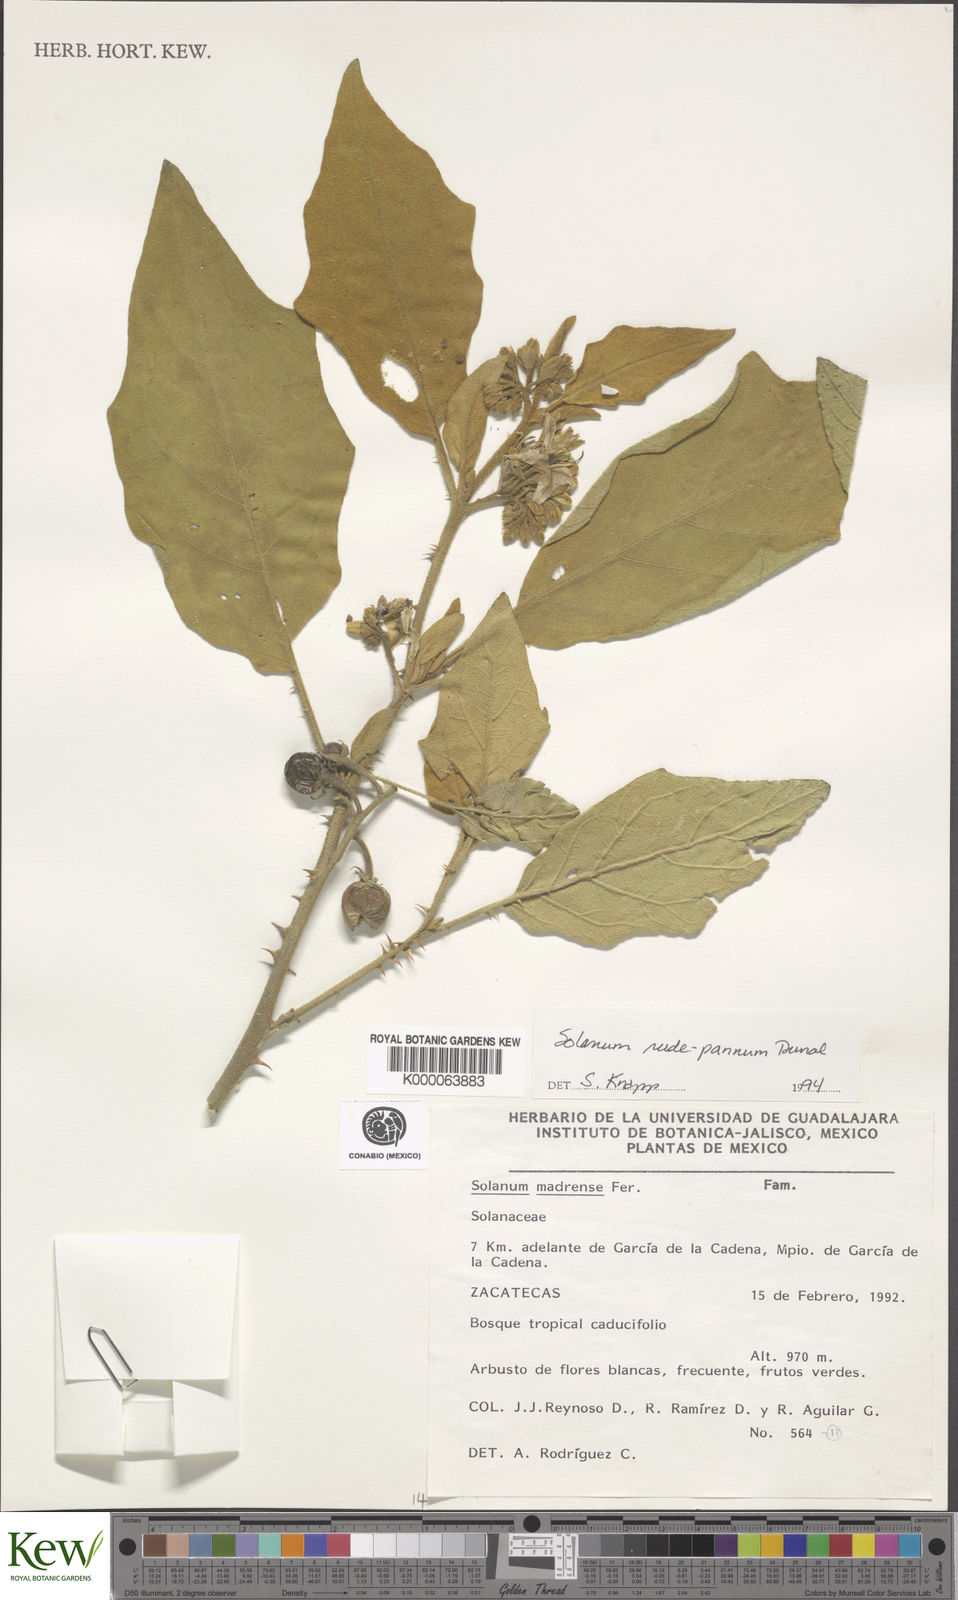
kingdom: Plantae
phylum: Tracheophyta
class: Magnoliopsida
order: Solanales
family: Solanaceae
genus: Solanum
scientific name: Solanum rude-pannum
